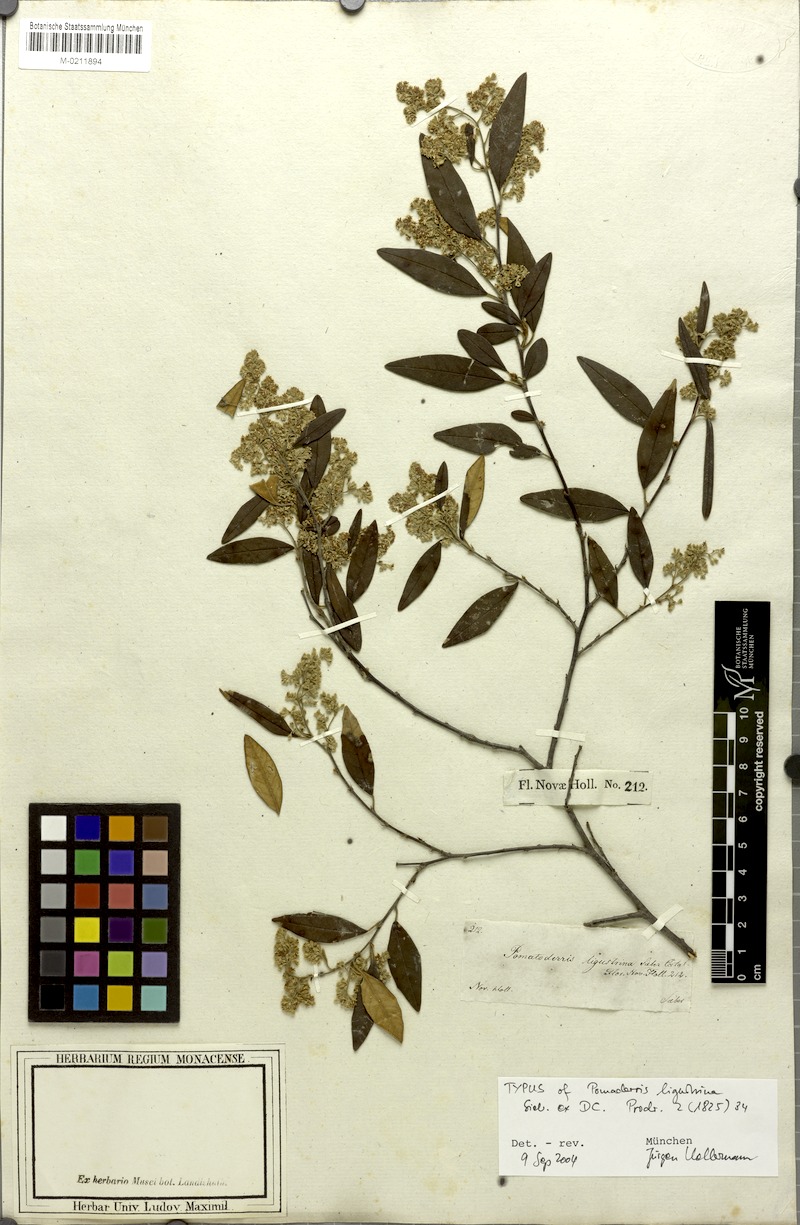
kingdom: Plantae
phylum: Tracheophyta
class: Magnoliopsida
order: Rosales
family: Rhamnaceae
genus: Pomaderris
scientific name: Pomaderris ligustrina
